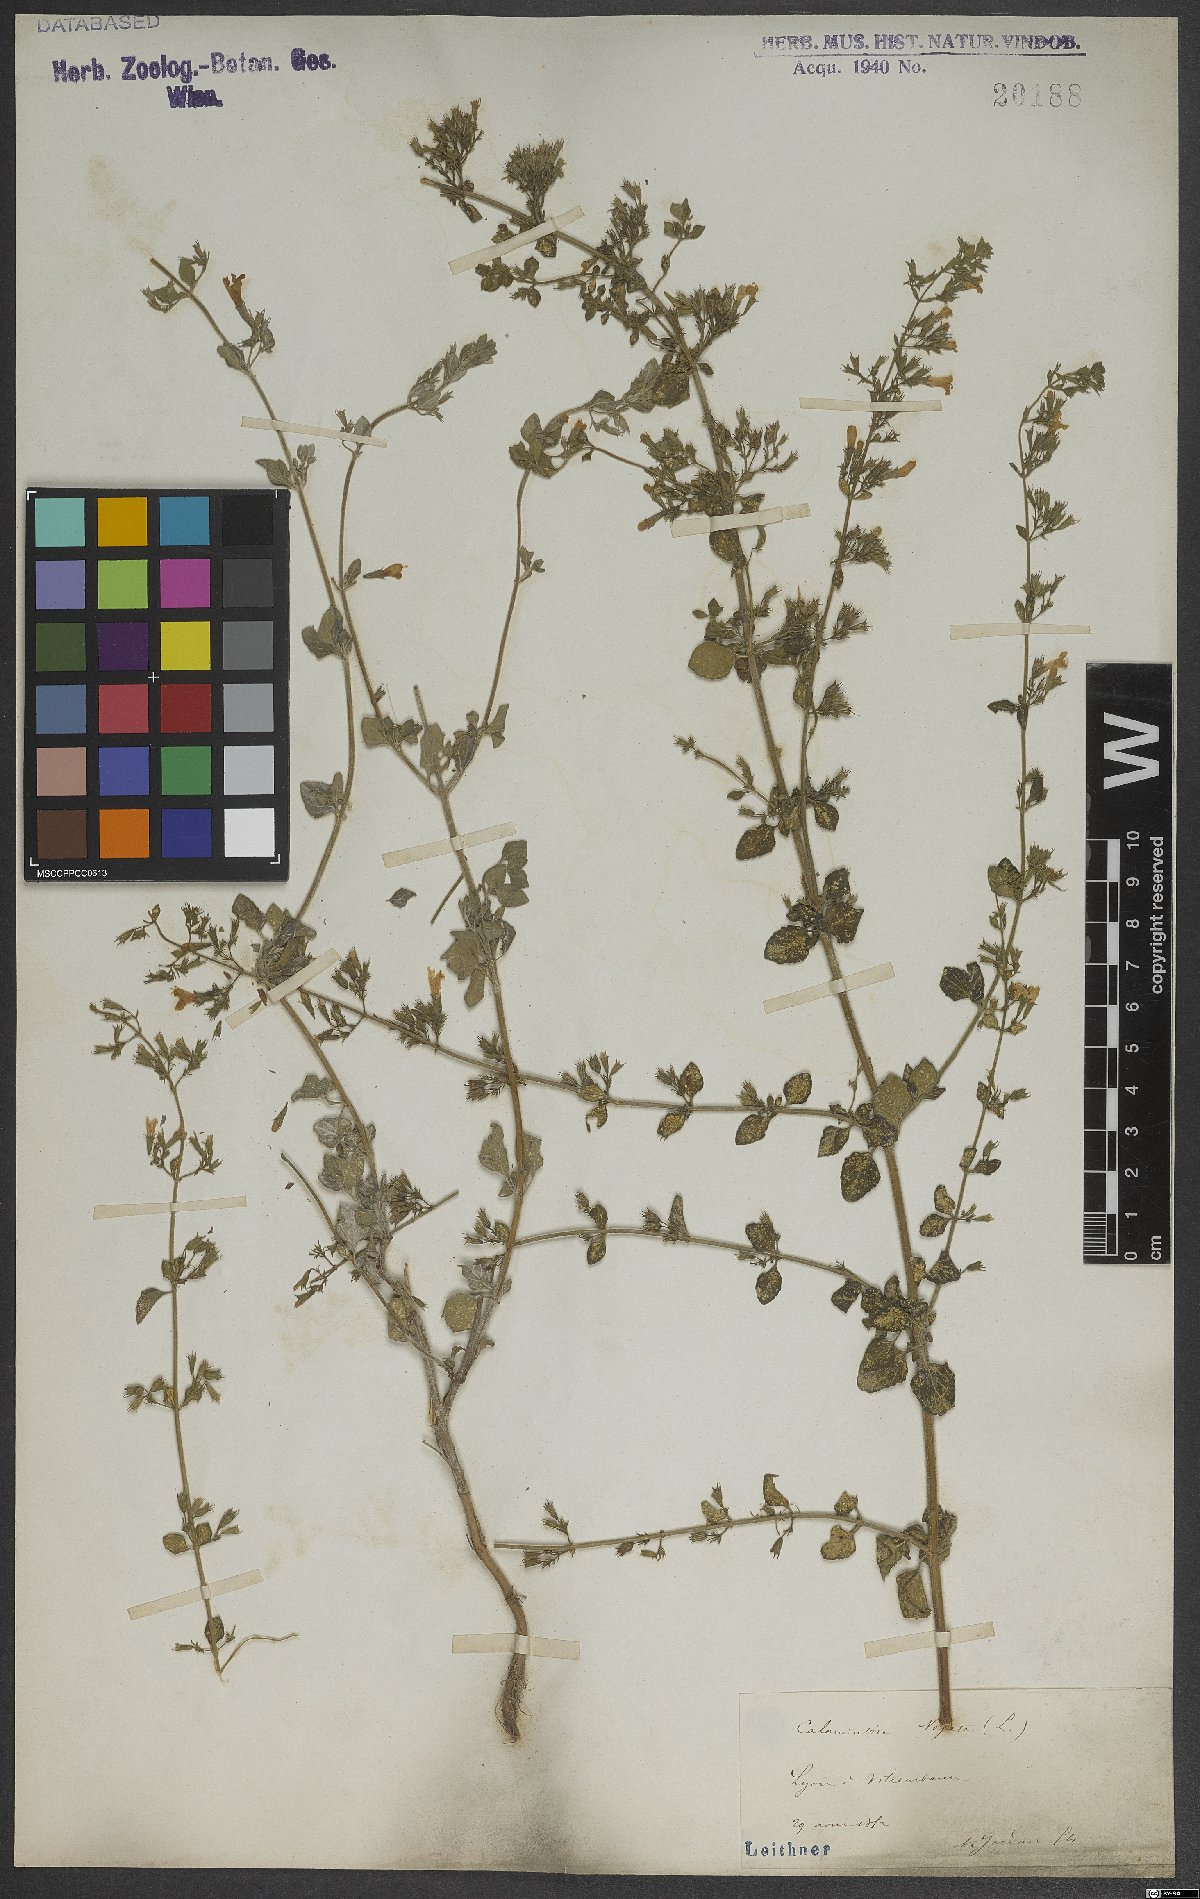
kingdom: Plantae
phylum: Tracheophyta
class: Magnoliopsida
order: Lamiales
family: Lamiaceae
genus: Clinopodium
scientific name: Clinopodium nepeta
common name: Lesser calamint
